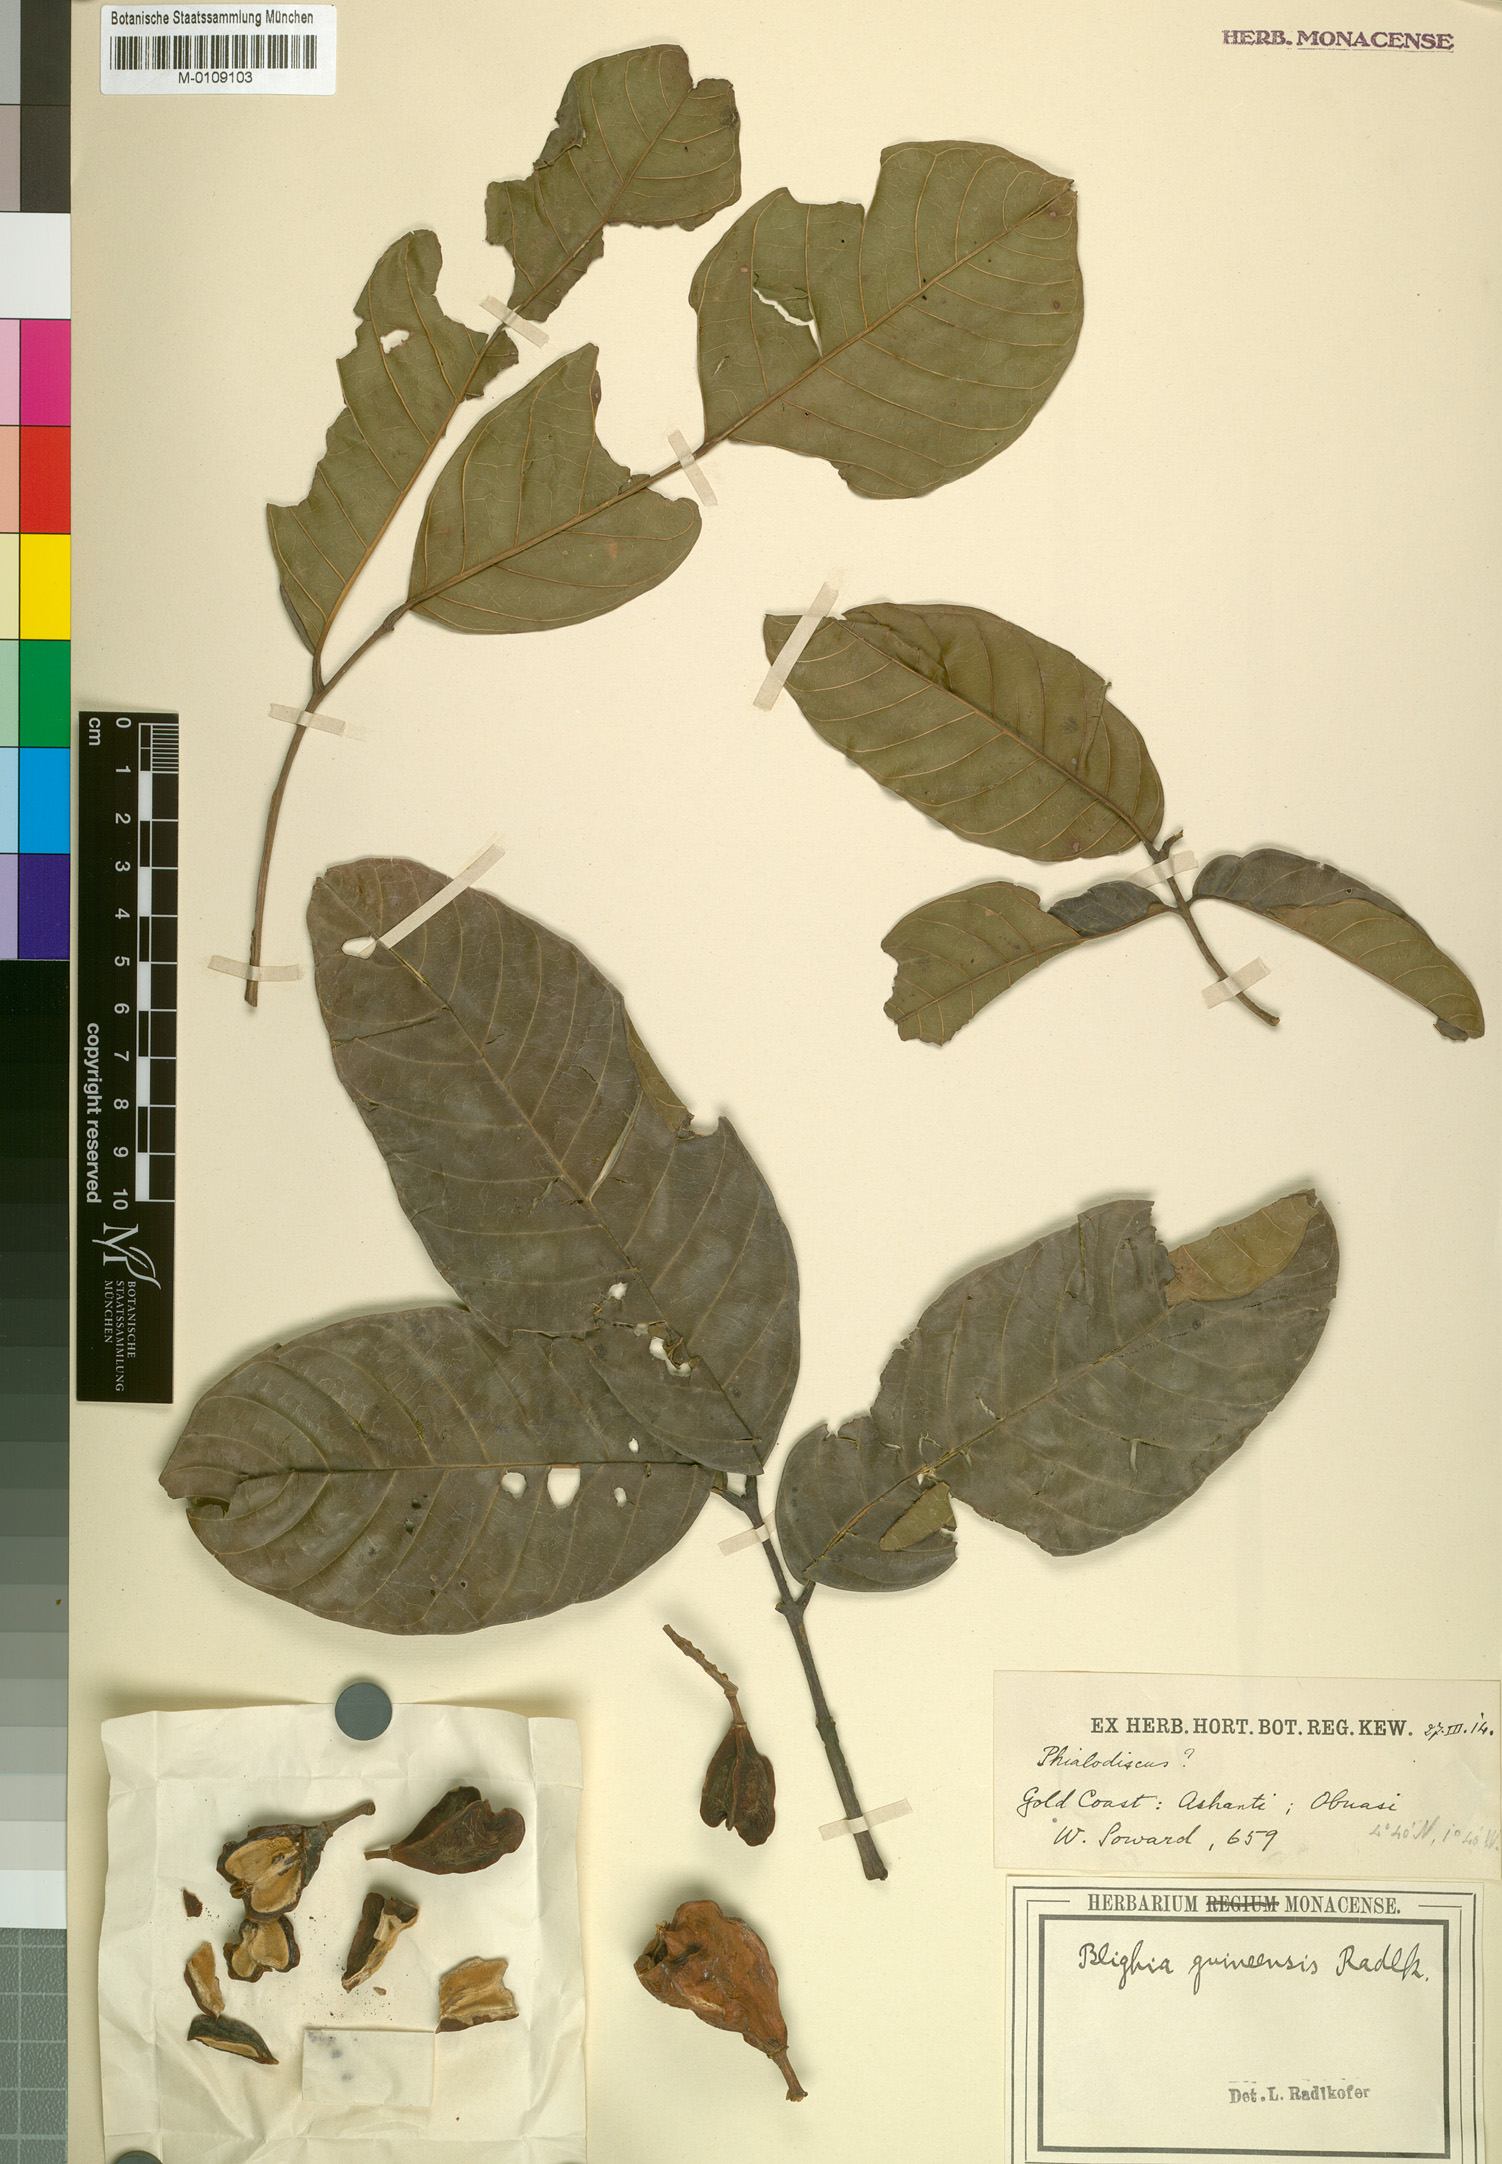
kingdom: Plantae
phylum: Tracheophyta
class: Magnoliopsida
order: Sapindales
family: Sapindaceae
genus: Blighia
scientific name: Blighia
